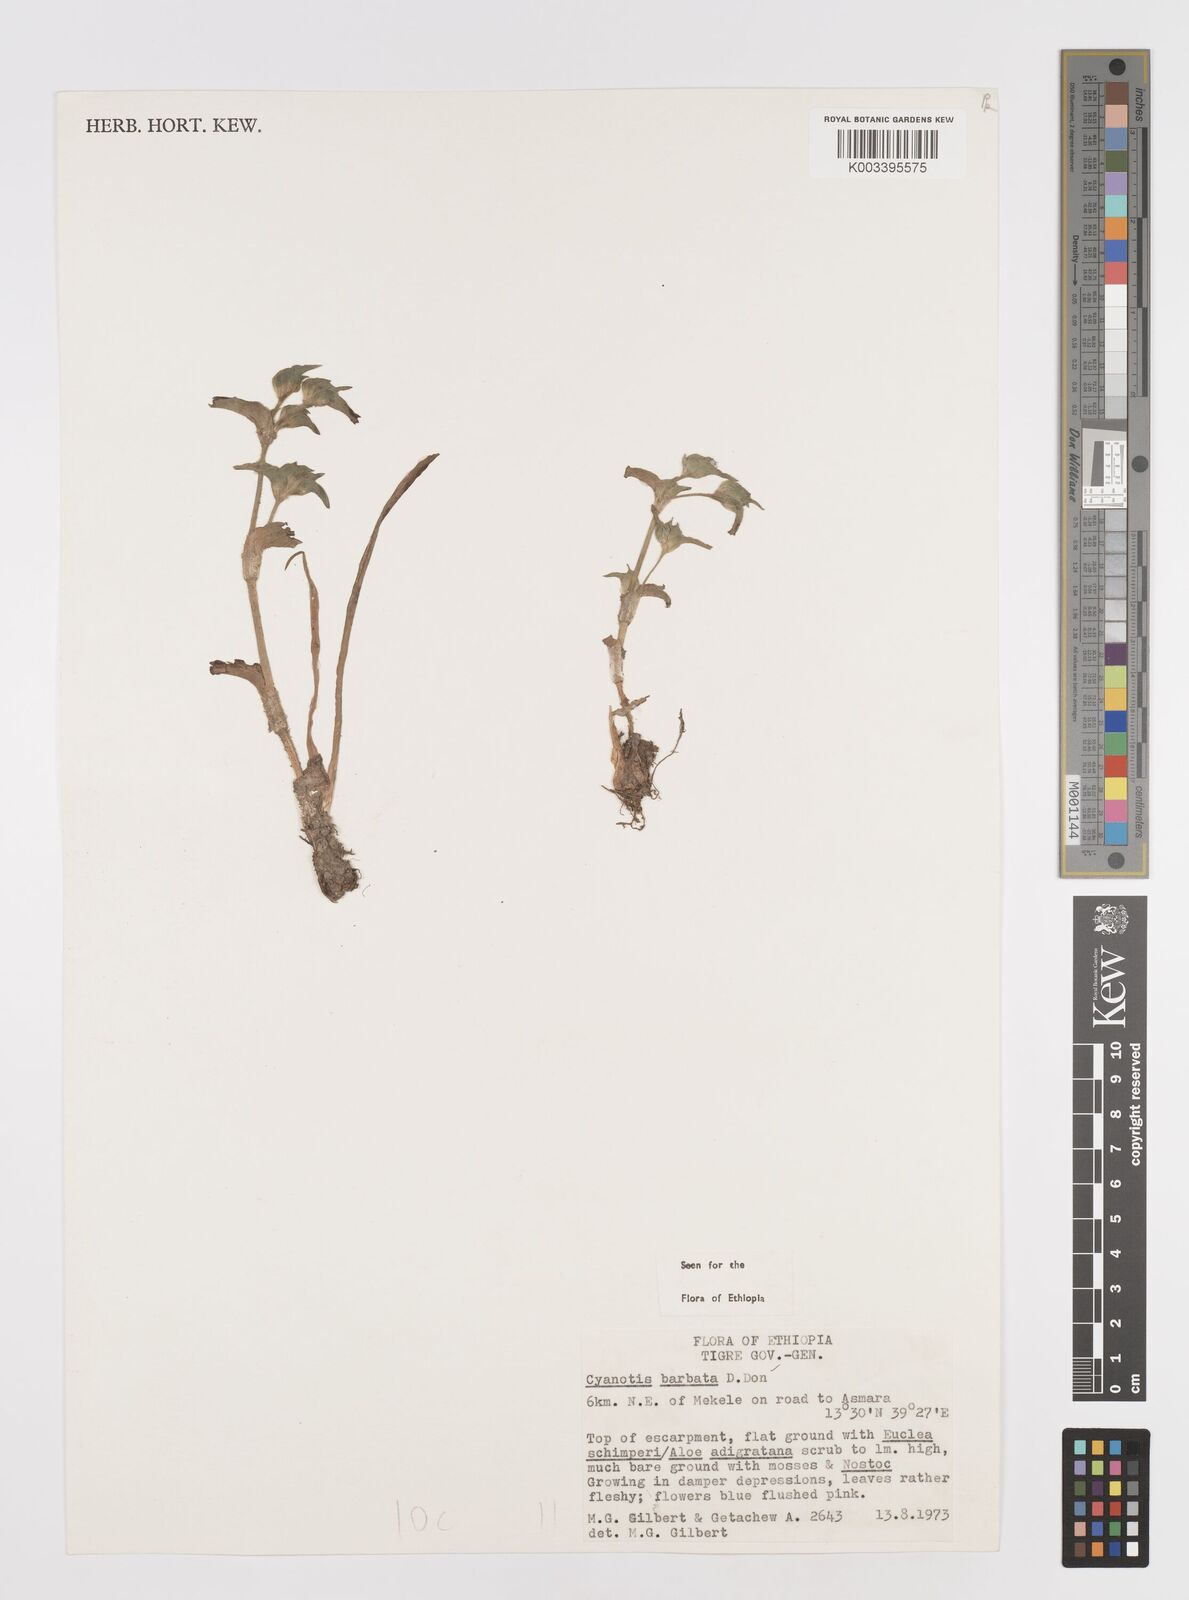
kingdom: Plantae
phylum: Tracheophyta
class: Liliopsida
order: Commelinales
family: Commelinaceae
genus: Cyanotis
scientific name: Cyanotis vaga
